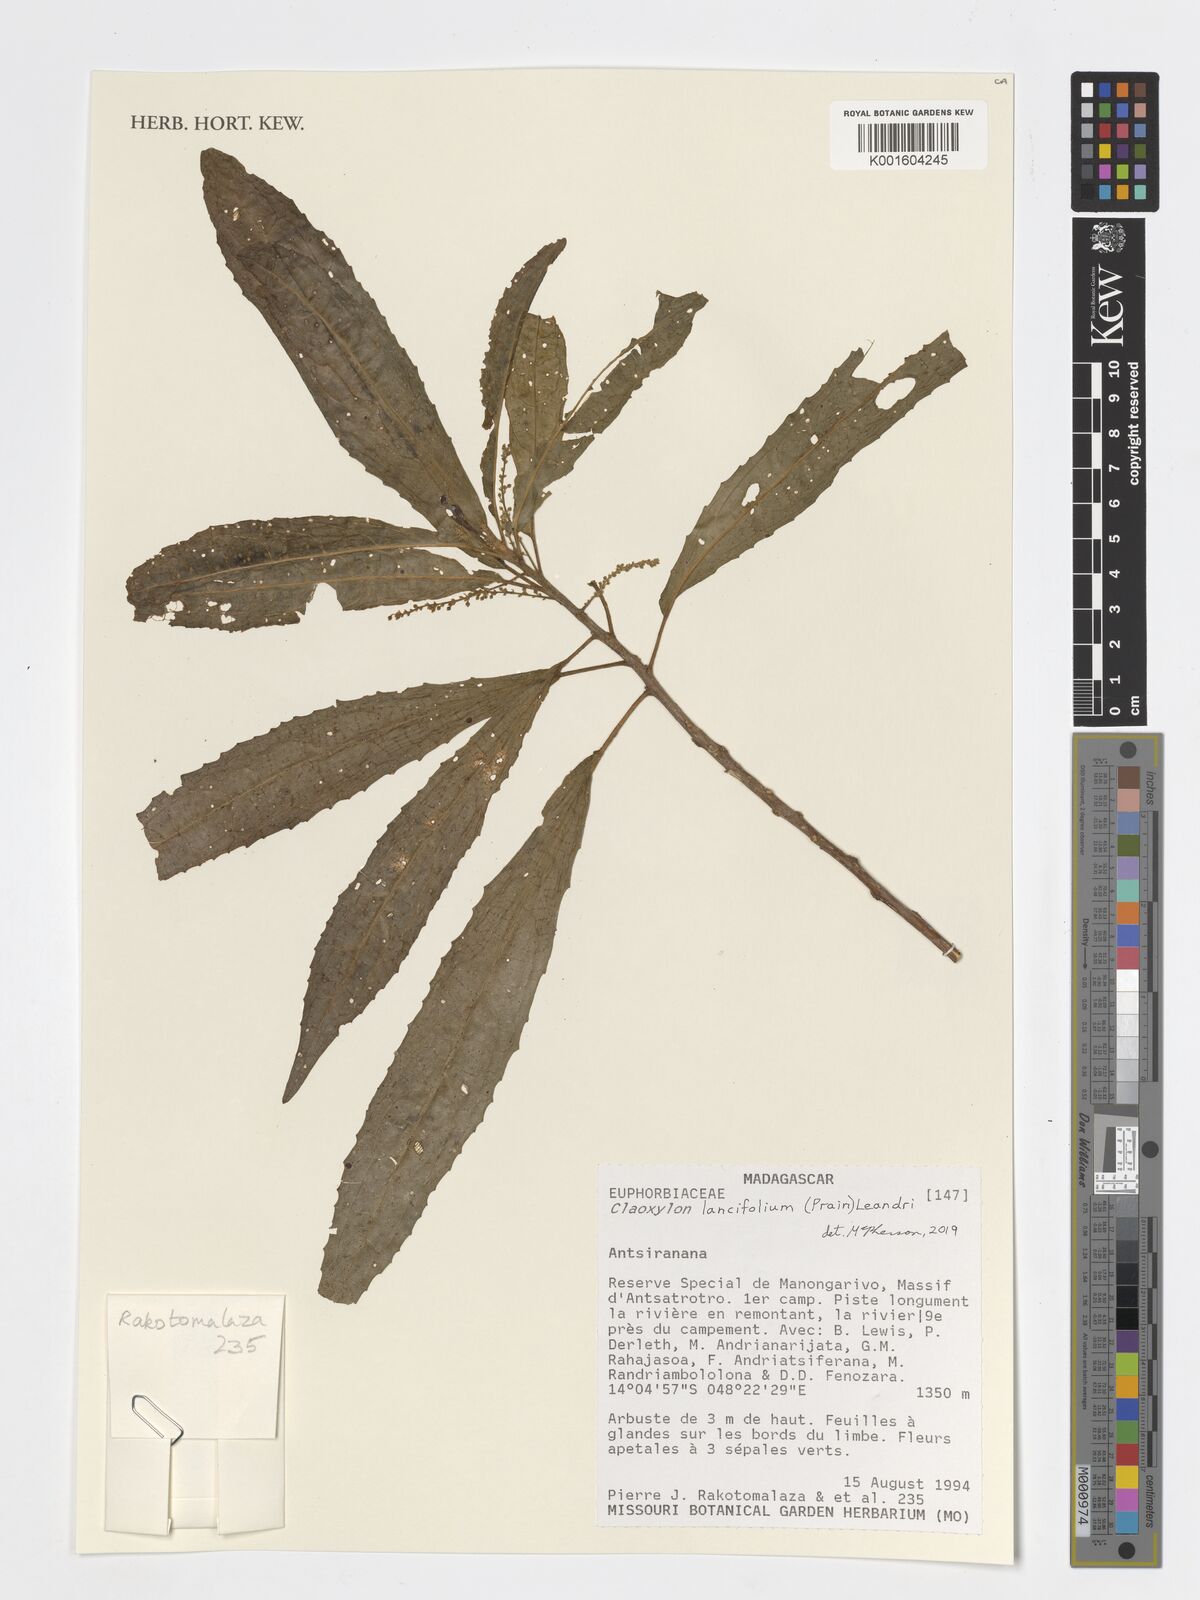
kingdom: Plantae
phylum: Tracheophyta
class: Magnoliopsida
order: Malpighiales
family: Euphorbiaceae
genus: Micrococca
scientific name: Micrococca lancifolia
